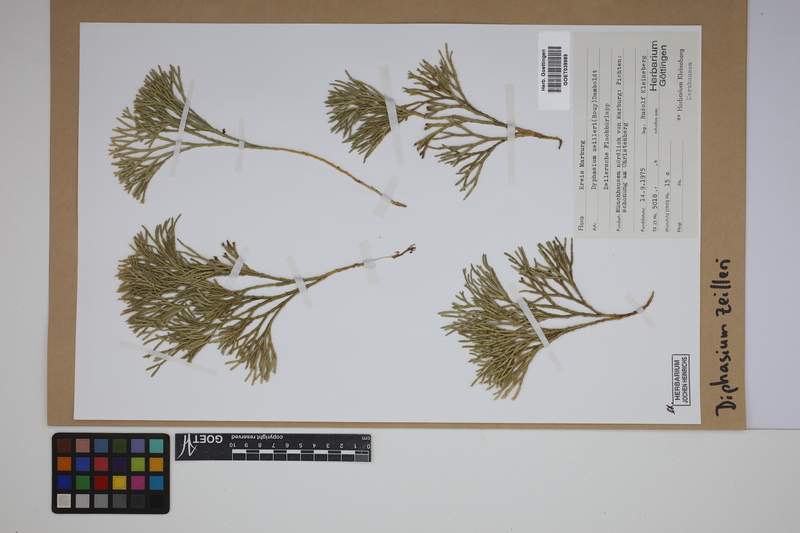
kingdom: Plantae
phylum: Tracheophyta
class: Lycopodiopsida
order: Lycopodiales
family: Lycopodiaceae
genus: Diphasiastrum
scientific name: Diphasiastrum zeilleri
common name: Zeiller's clubmoss
